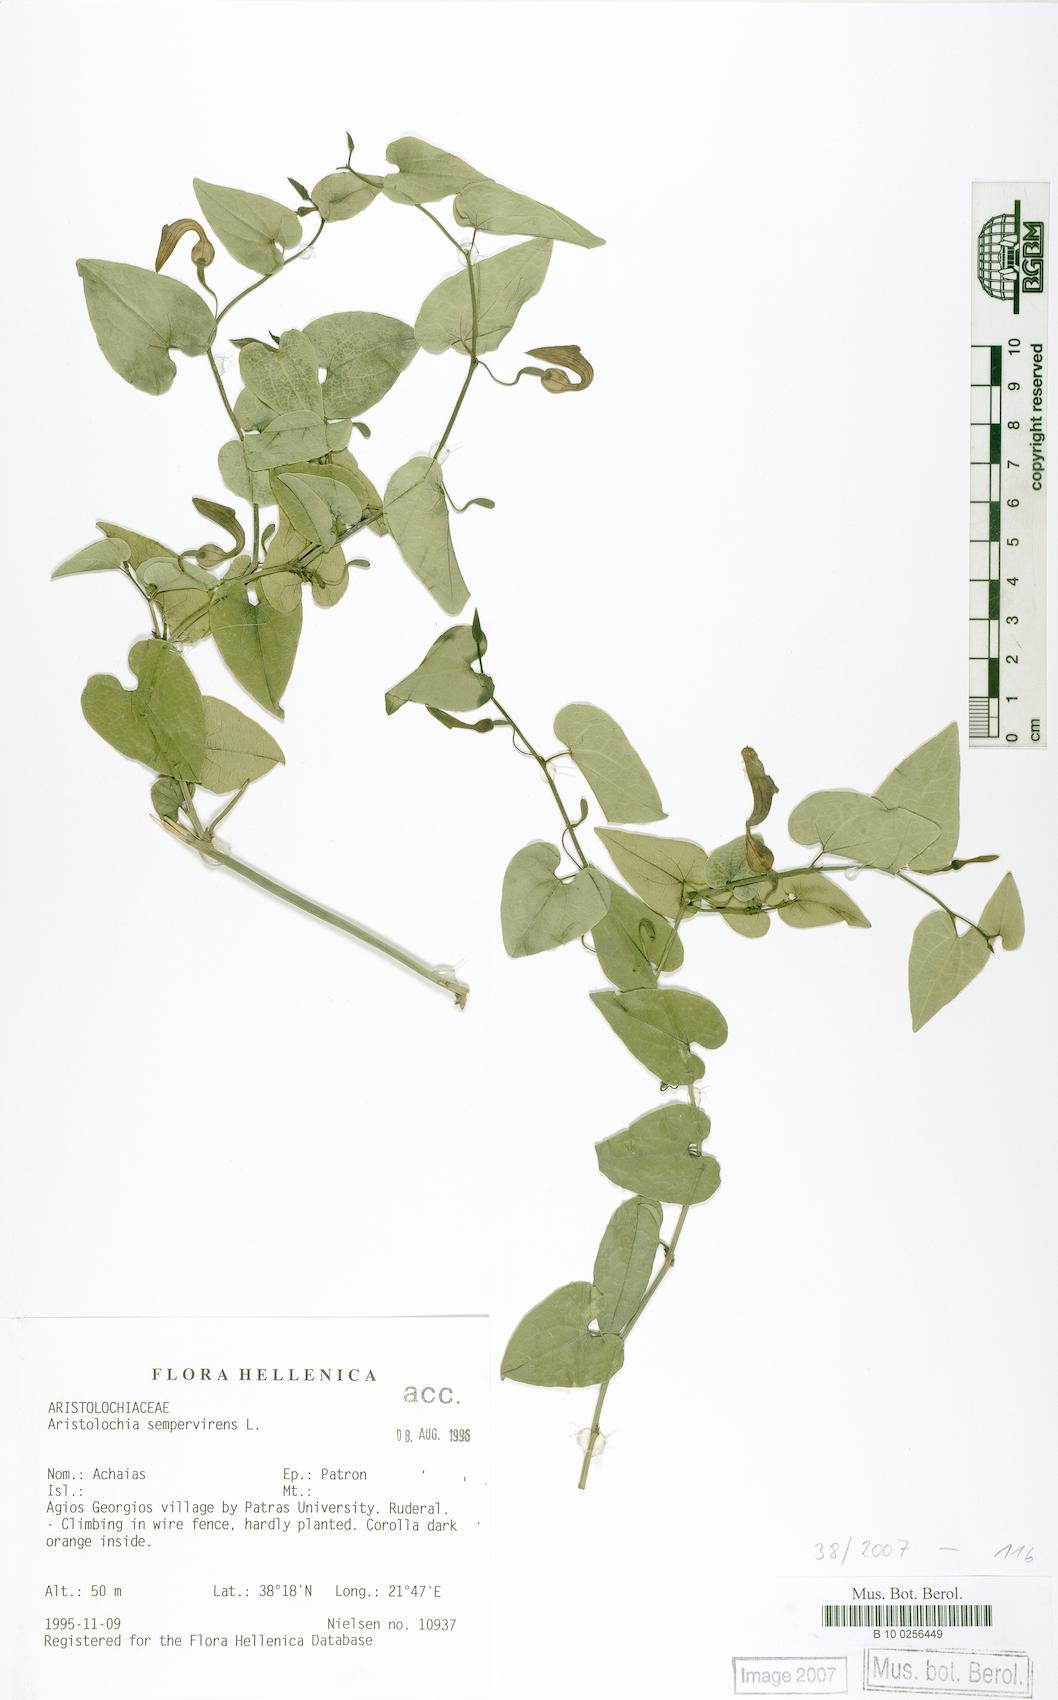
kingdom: Plantae
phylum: Tracheophyta
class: Magnoliopsida
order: Piperales
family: Aristolochiaceae
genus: Aristolochia
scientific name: Aristolochia sempervirens
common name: Long birthwort
